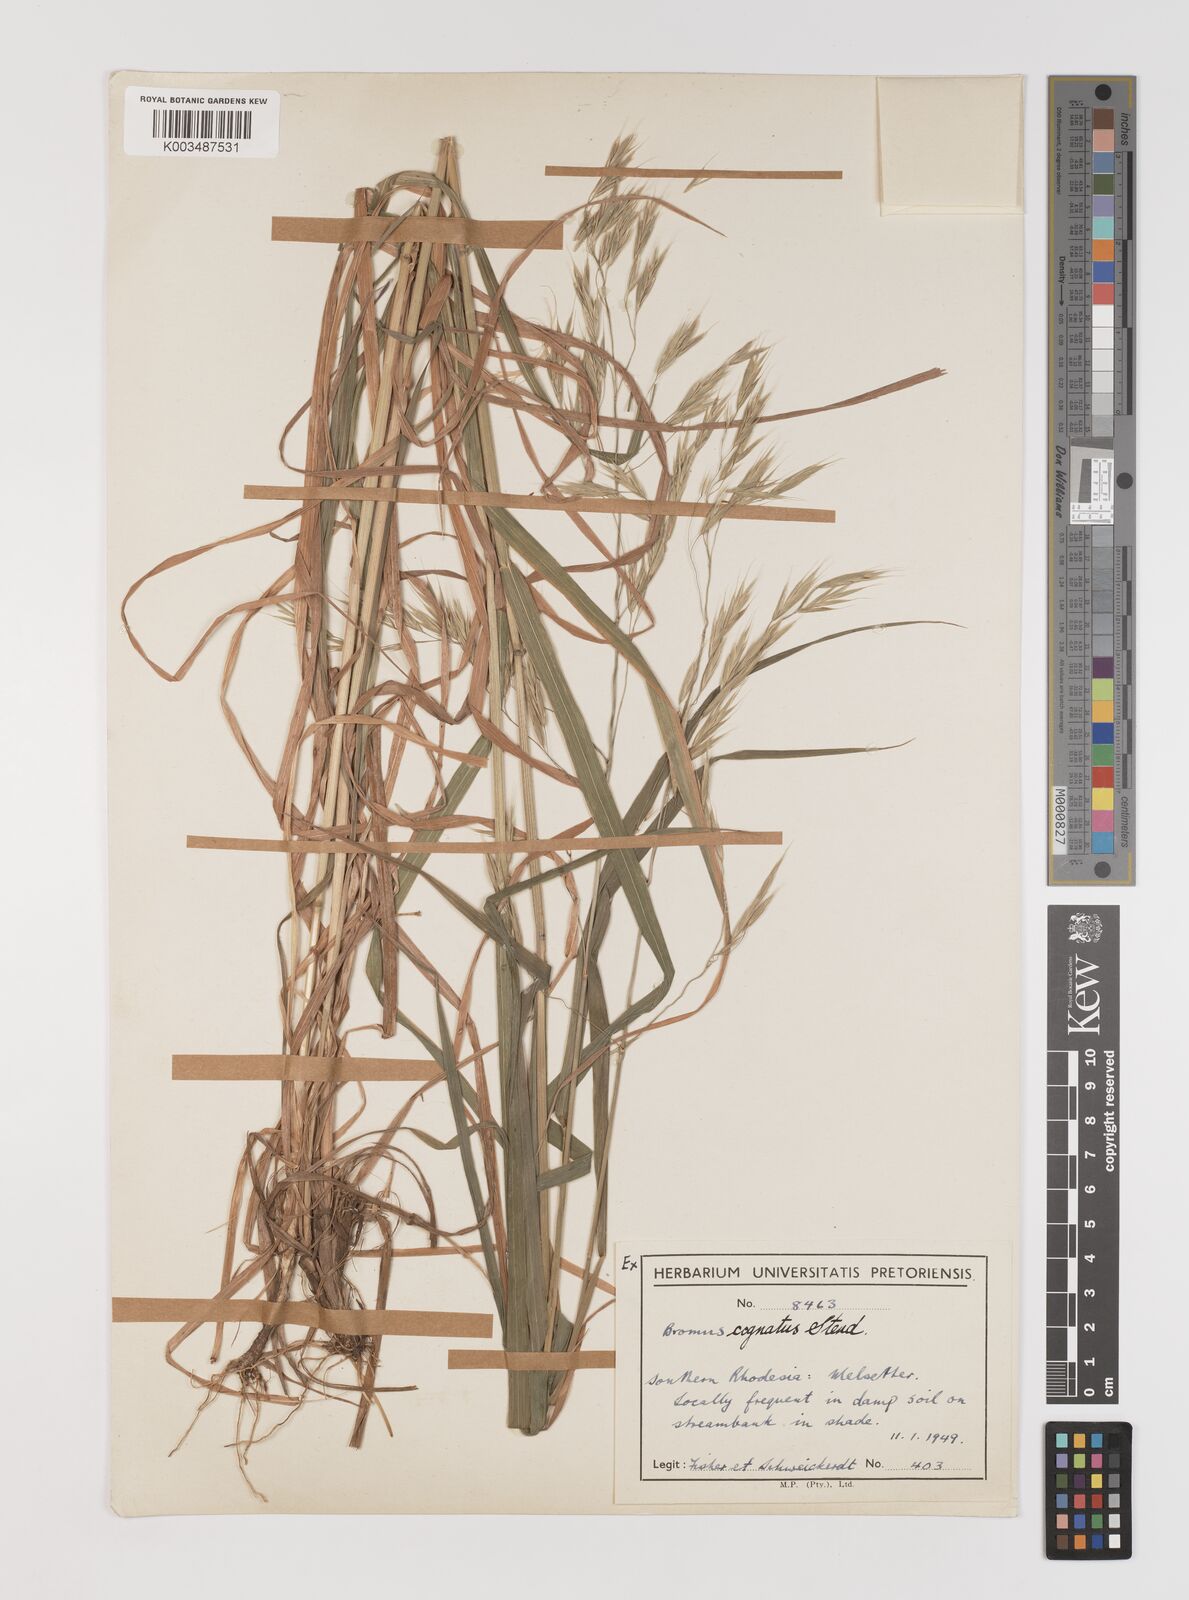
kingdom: Plantae
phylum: Tracheophyta
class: Liliopsida
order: Poales
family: Poaceae
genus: Bromus
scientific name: Bromus leptoclados
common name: Mountain bromegrass
